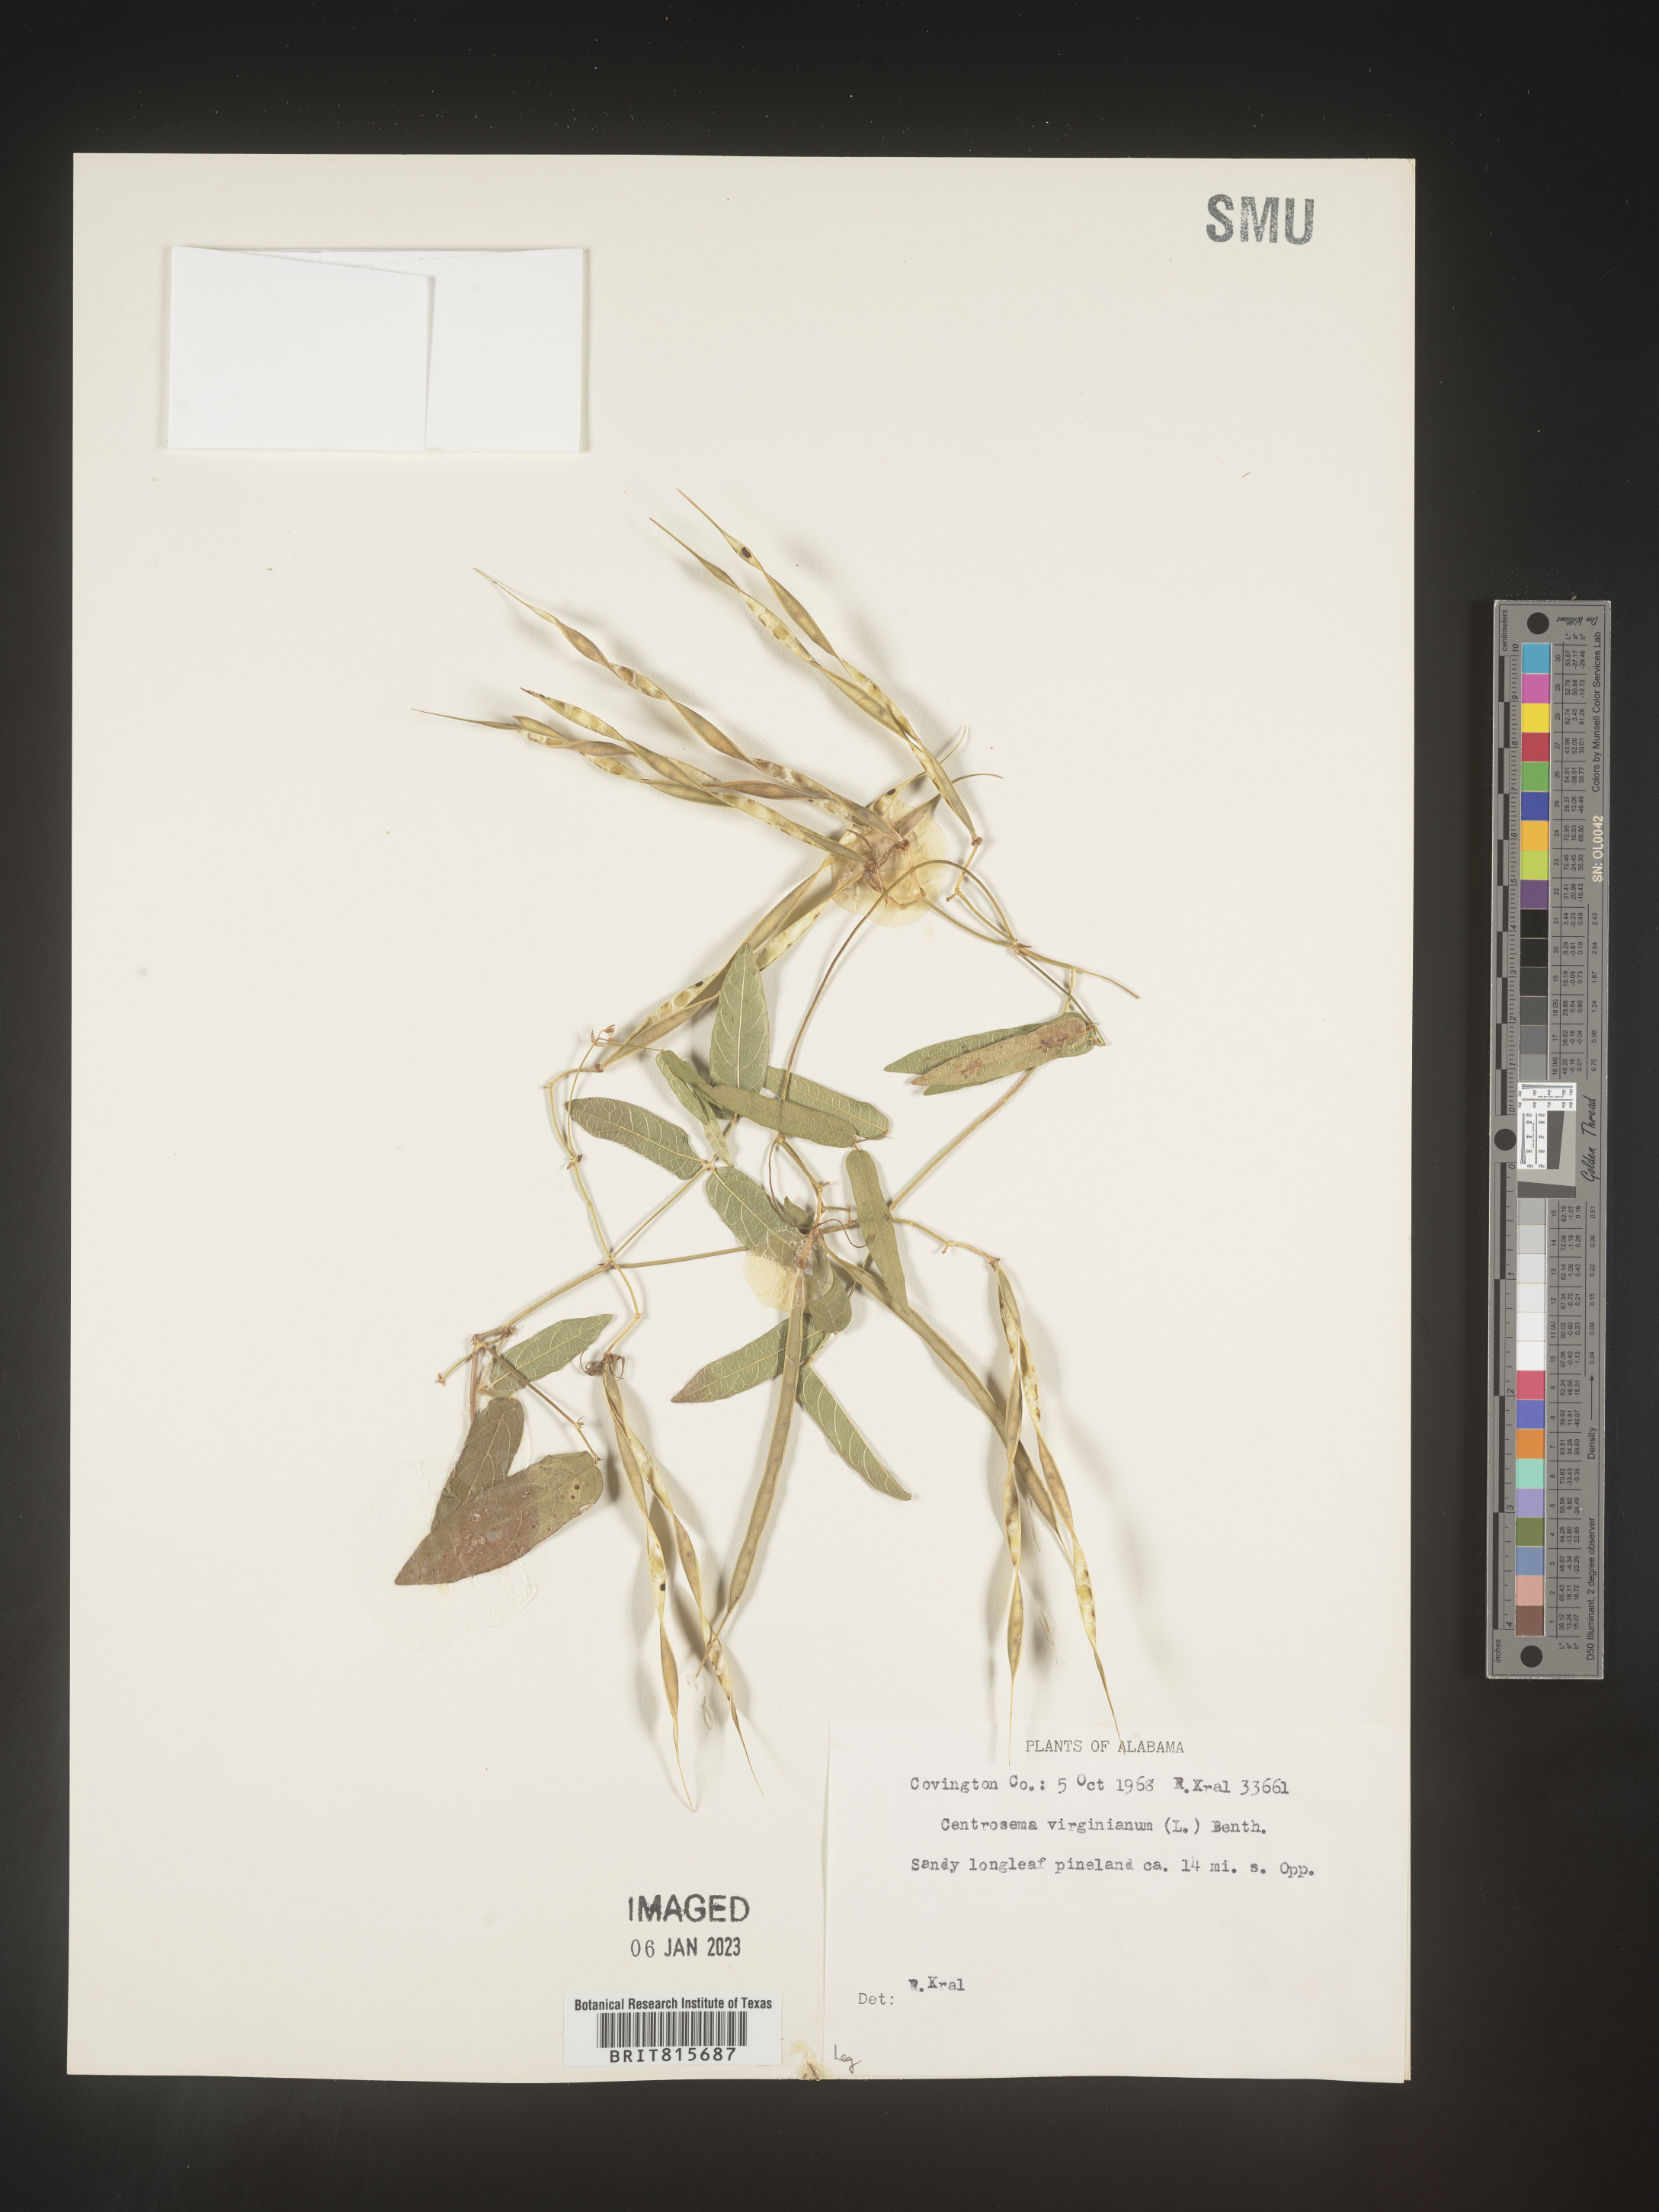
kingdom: Plantae
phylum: Tracheophyta
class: Magnoliopsida
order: Fabales
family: Fabaceae
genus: Centrosema
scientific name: Centrosema virginianum
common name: Butterfly-pea
